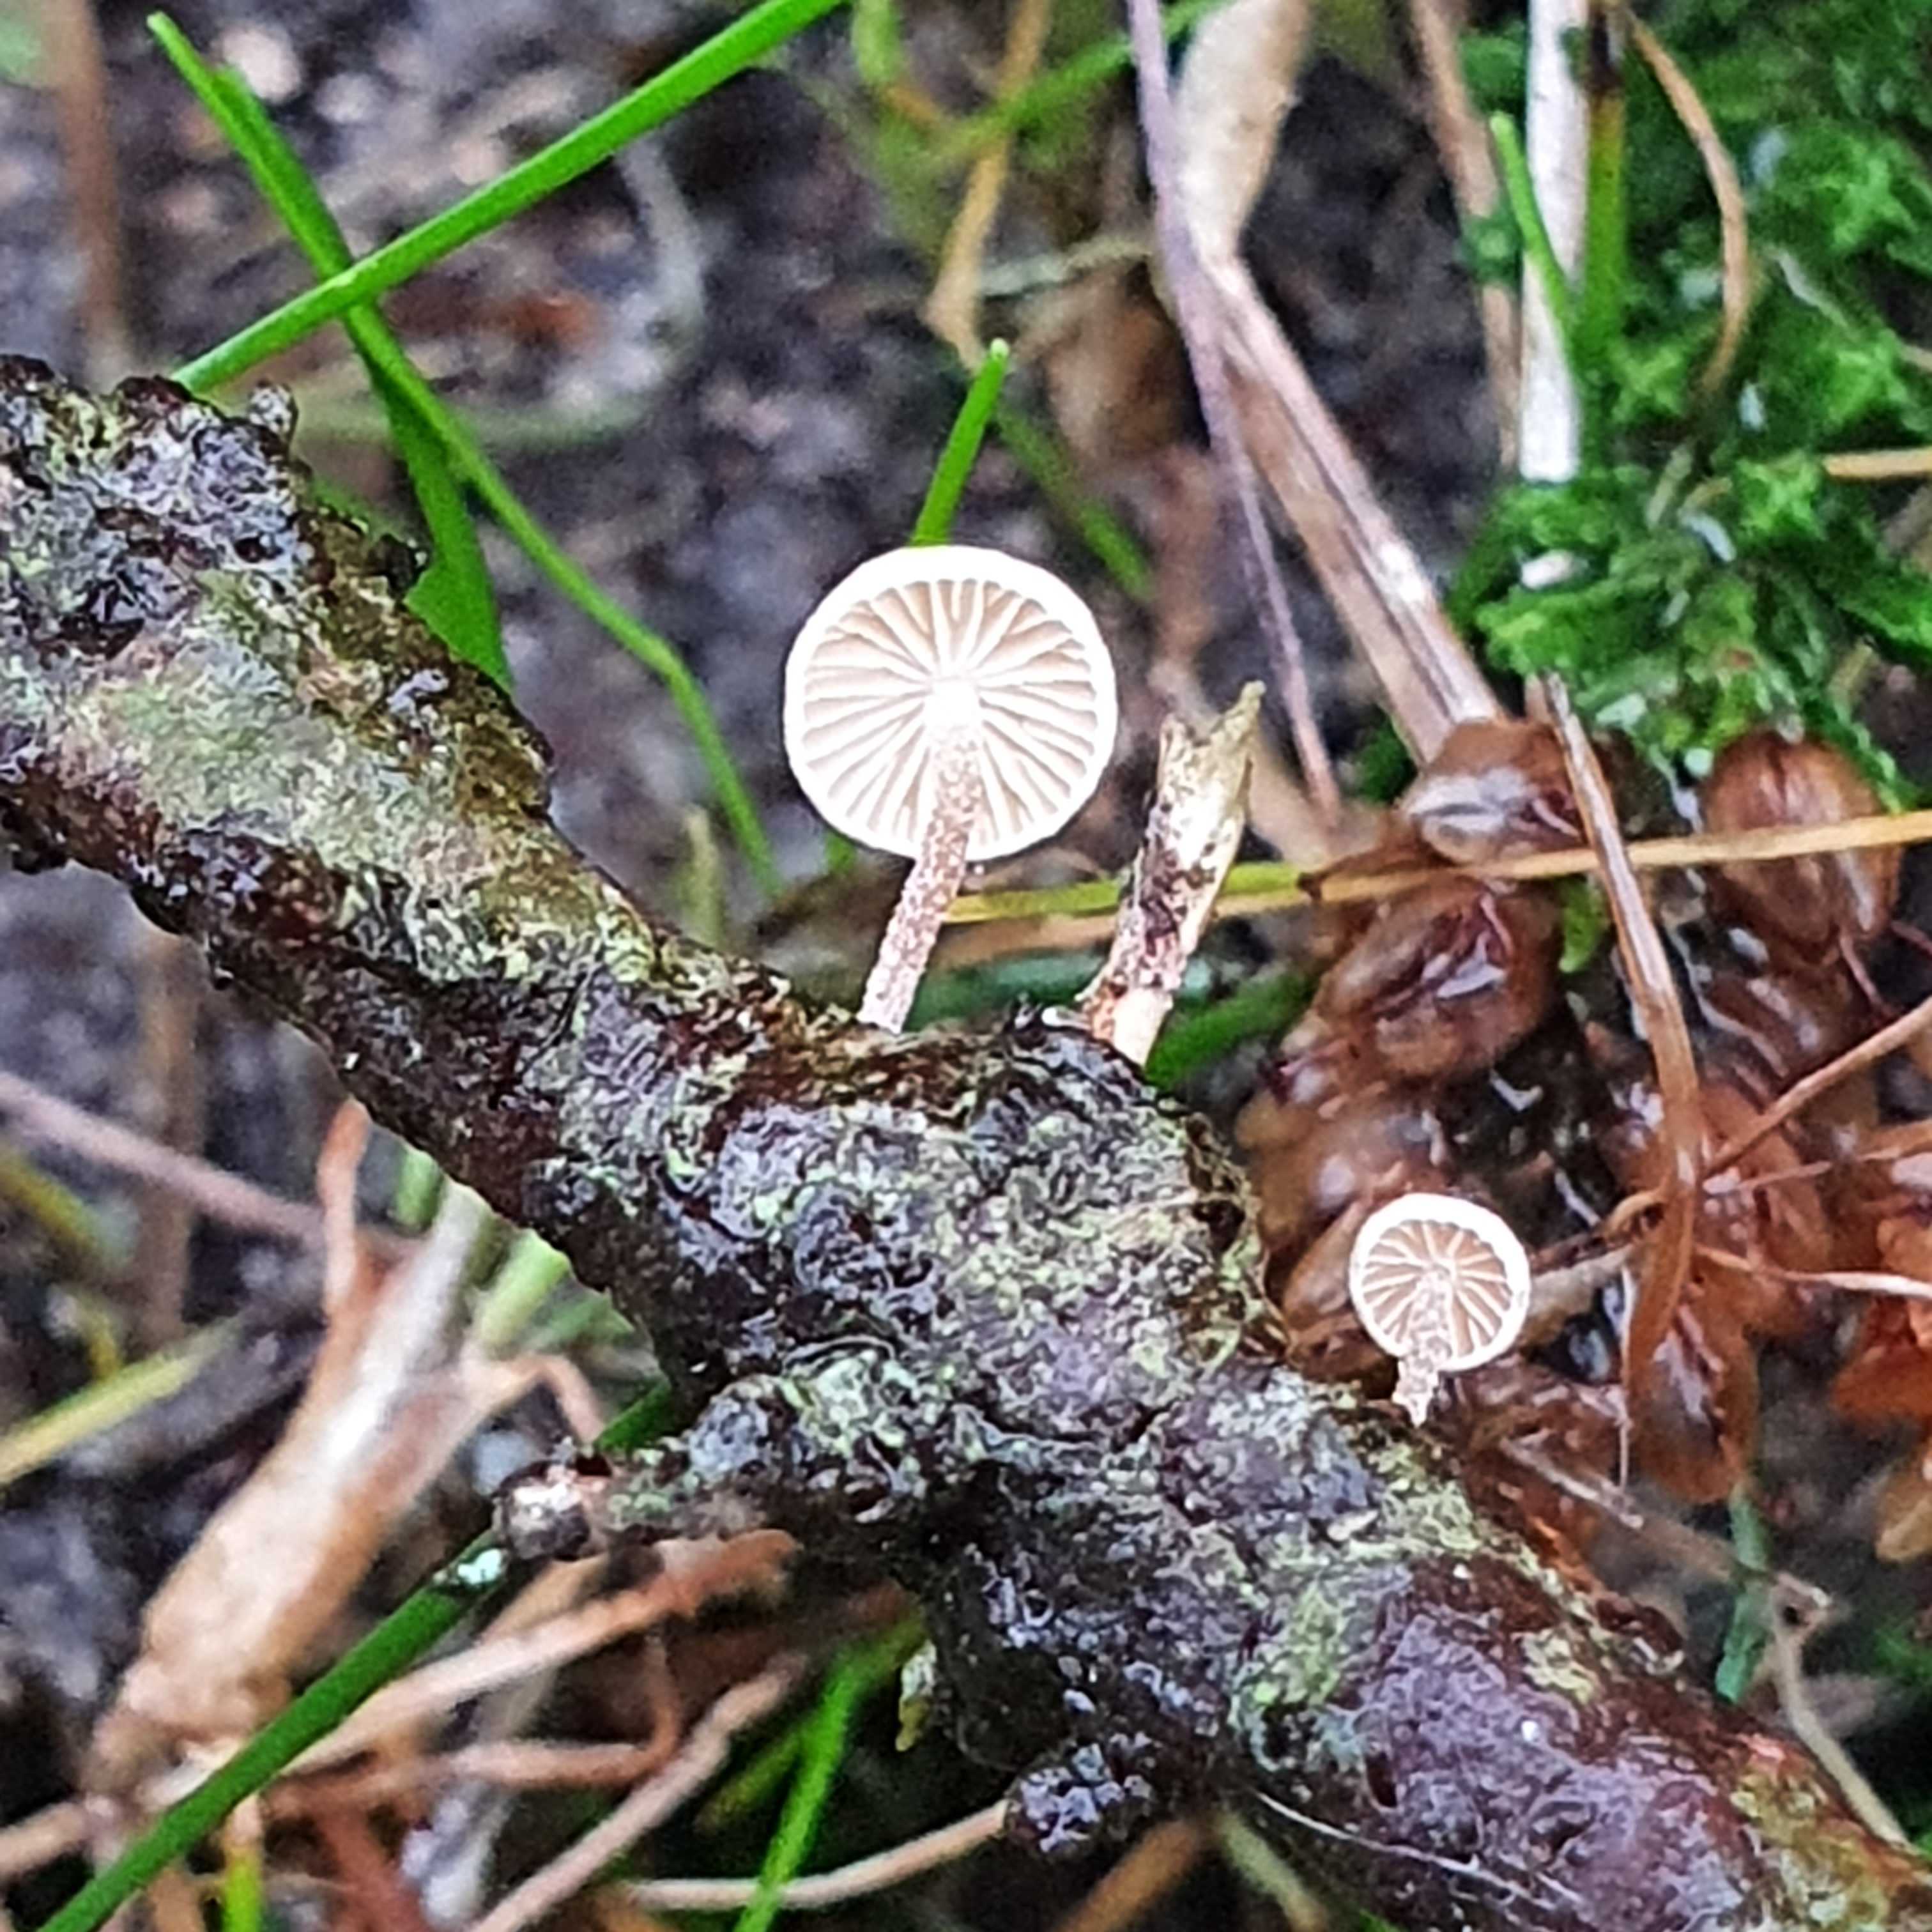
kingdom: Fungi
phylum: Basidiomycota
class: Agaricomycetes
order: Agaricales
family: Omphalotaceae
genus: Collybiopsis
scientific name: Collybiopsis ramealis
